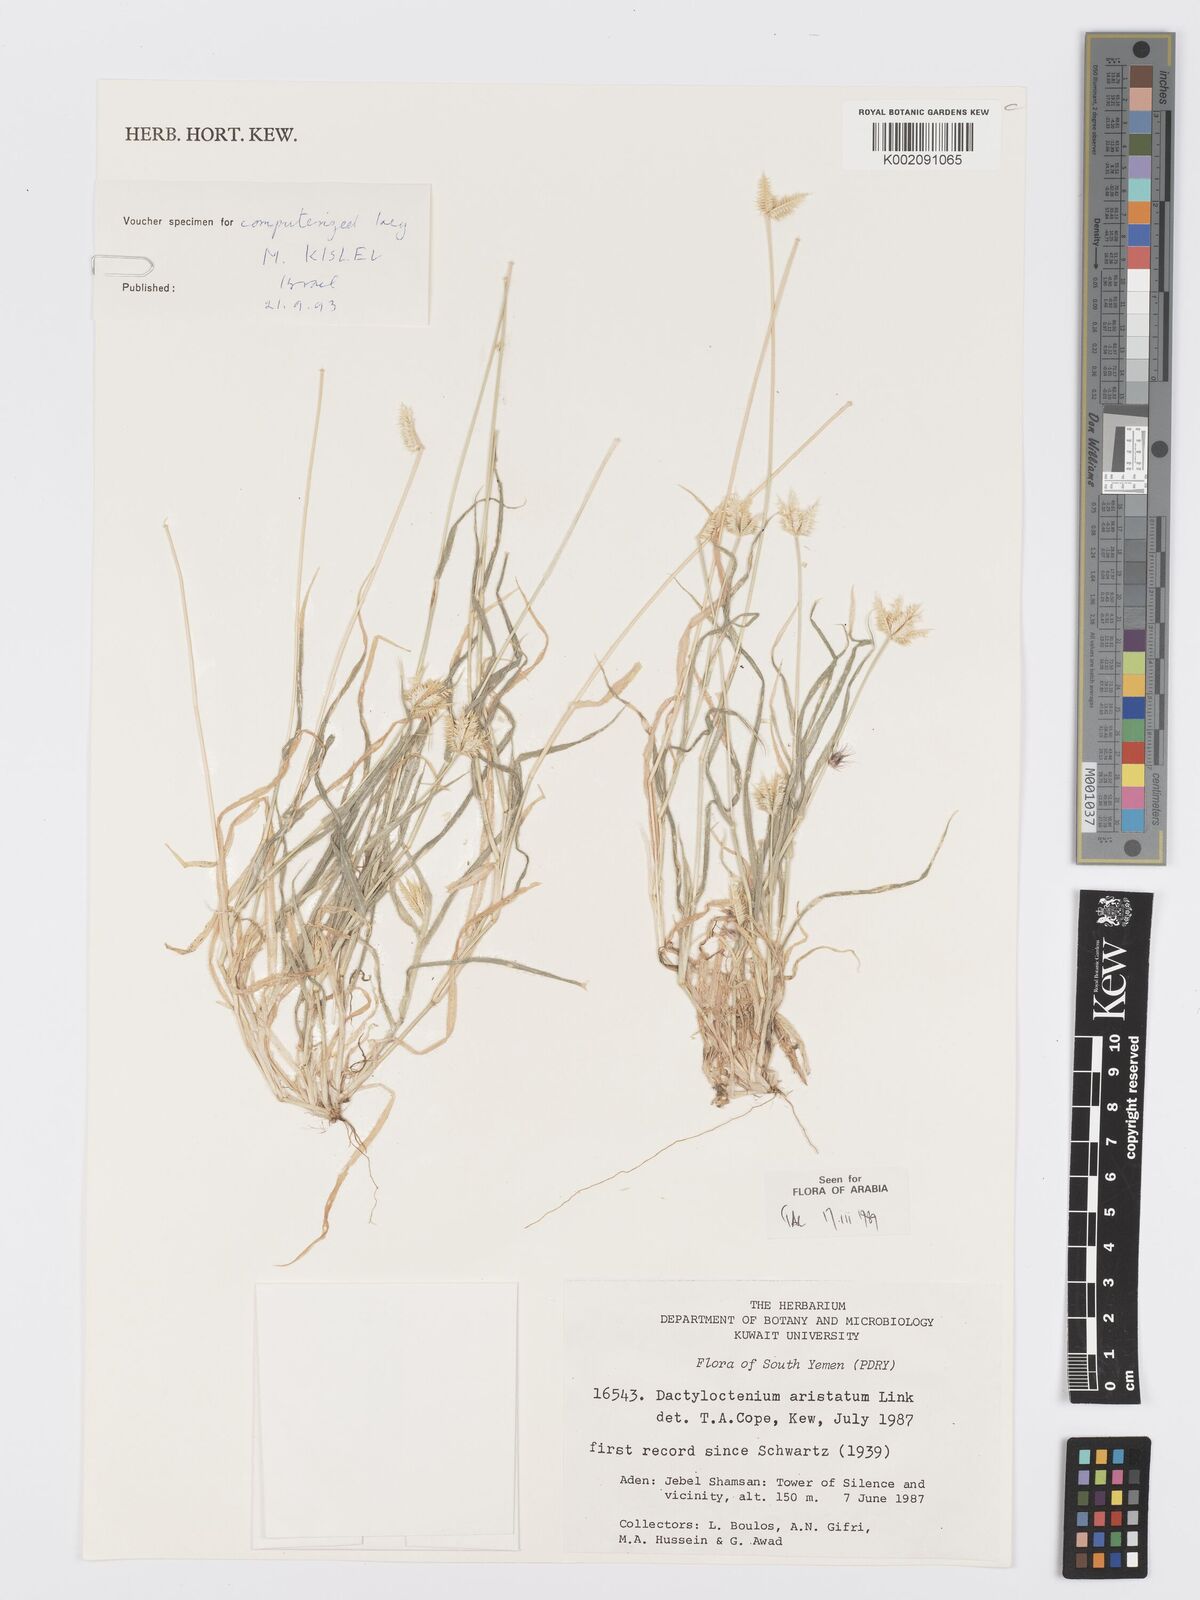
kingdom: Plantae
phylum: Tracheophyta
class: Liliopsida
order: Poales
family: Poaceae
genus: Dactyloctenium
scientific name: Dactyloctenium aegyptium
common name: Egyptian grass
